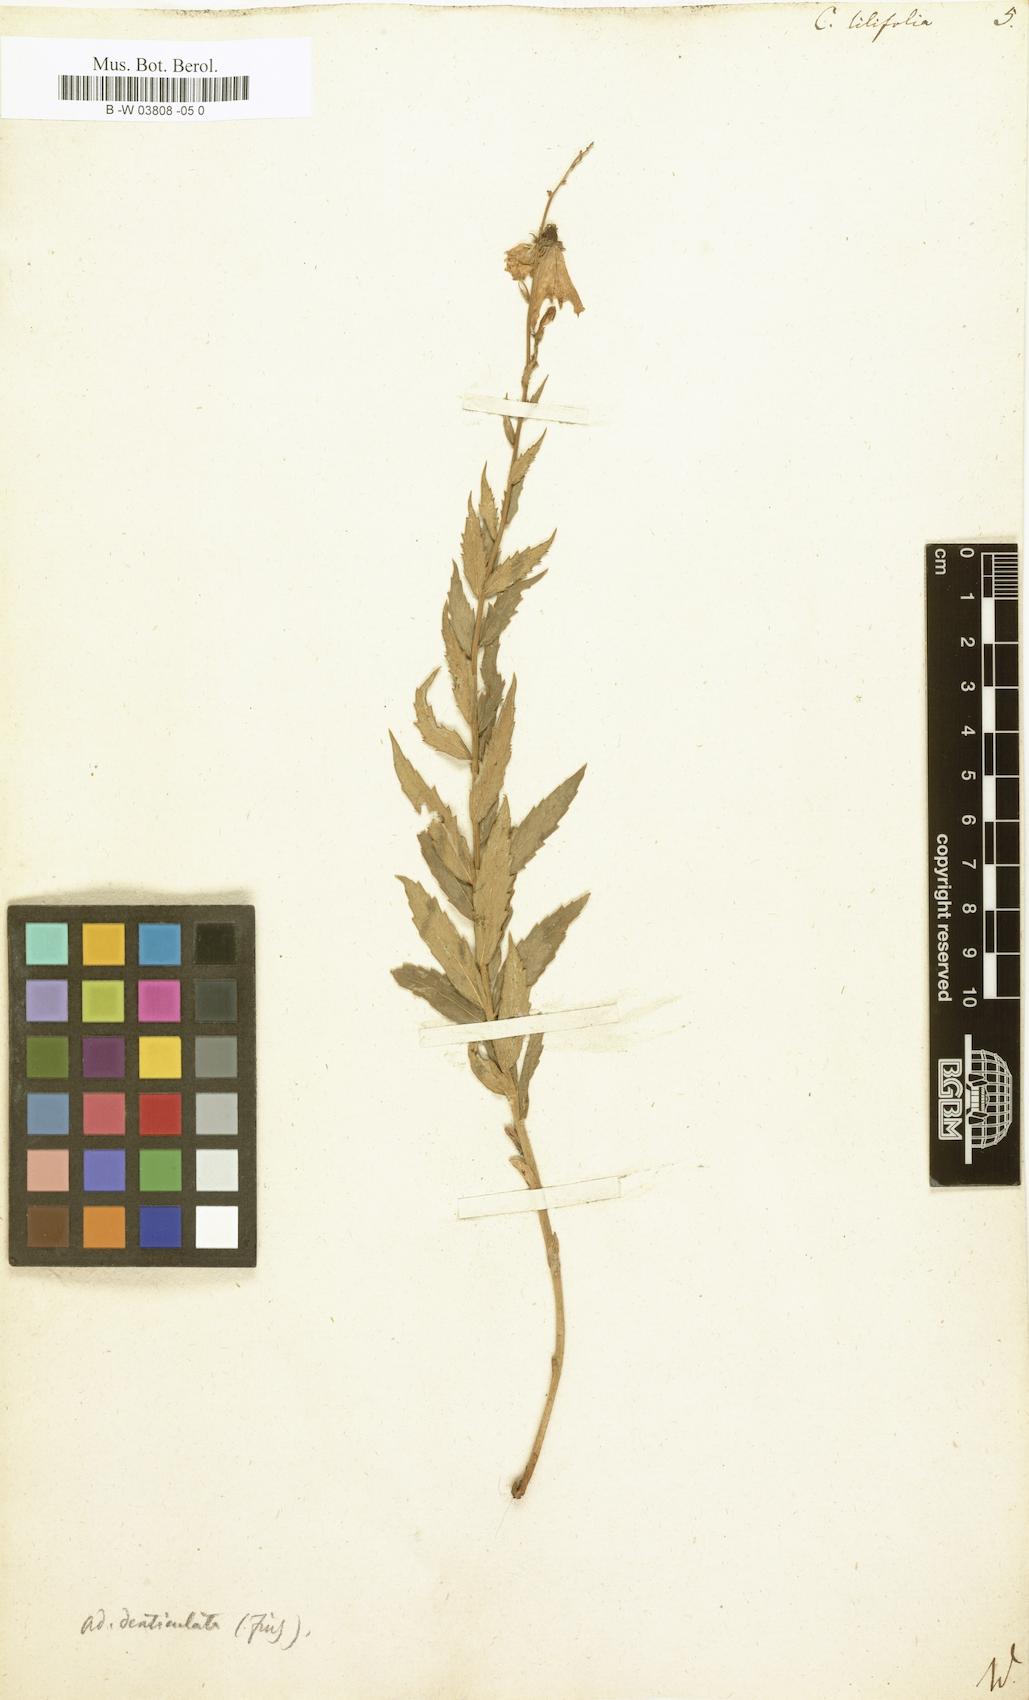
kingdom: Plantae
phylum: Tracheophyta
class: Magnoliopsida
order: Asterales
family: Campanulaceae
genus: Campanula
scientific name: Campanula lilifolia
